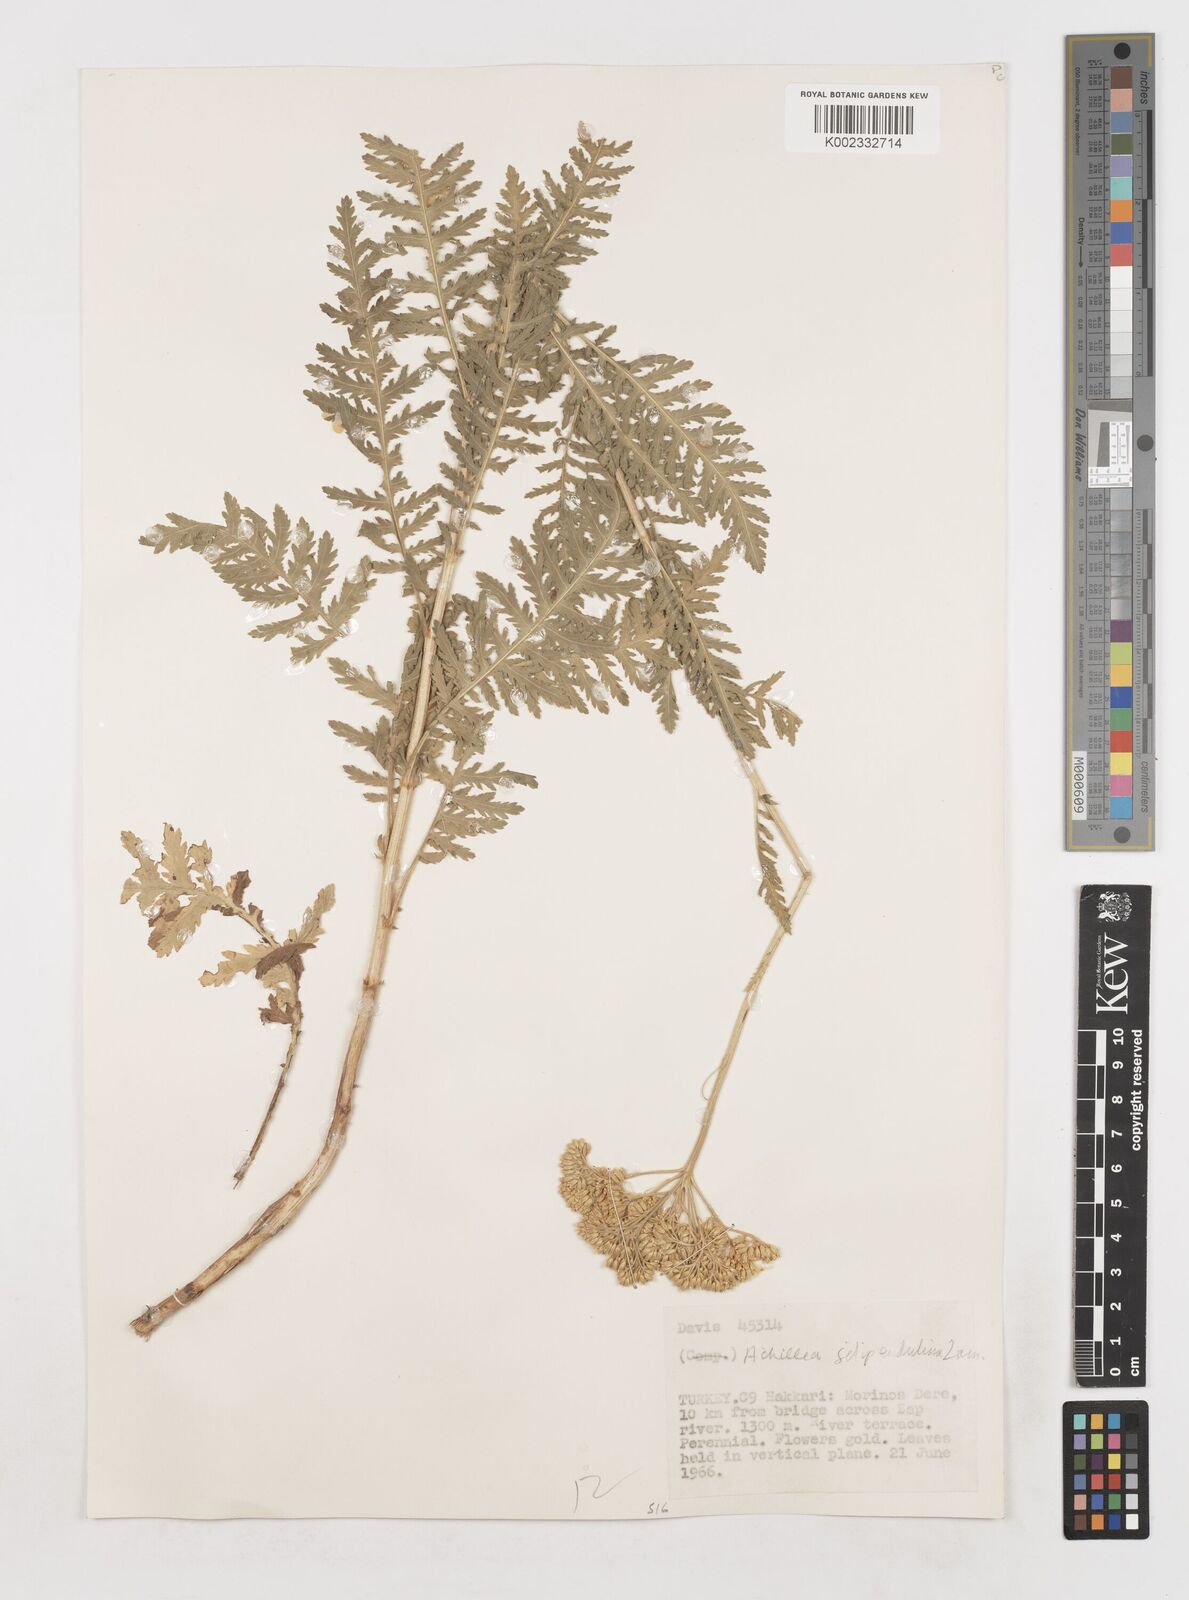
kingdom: Plantae
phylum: Tracheophyta
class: Magnoliopsida
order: Asterales
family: Asteraceae
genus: Achillea
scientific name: Achillea filipendulina
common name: Fernleaf yarrow
